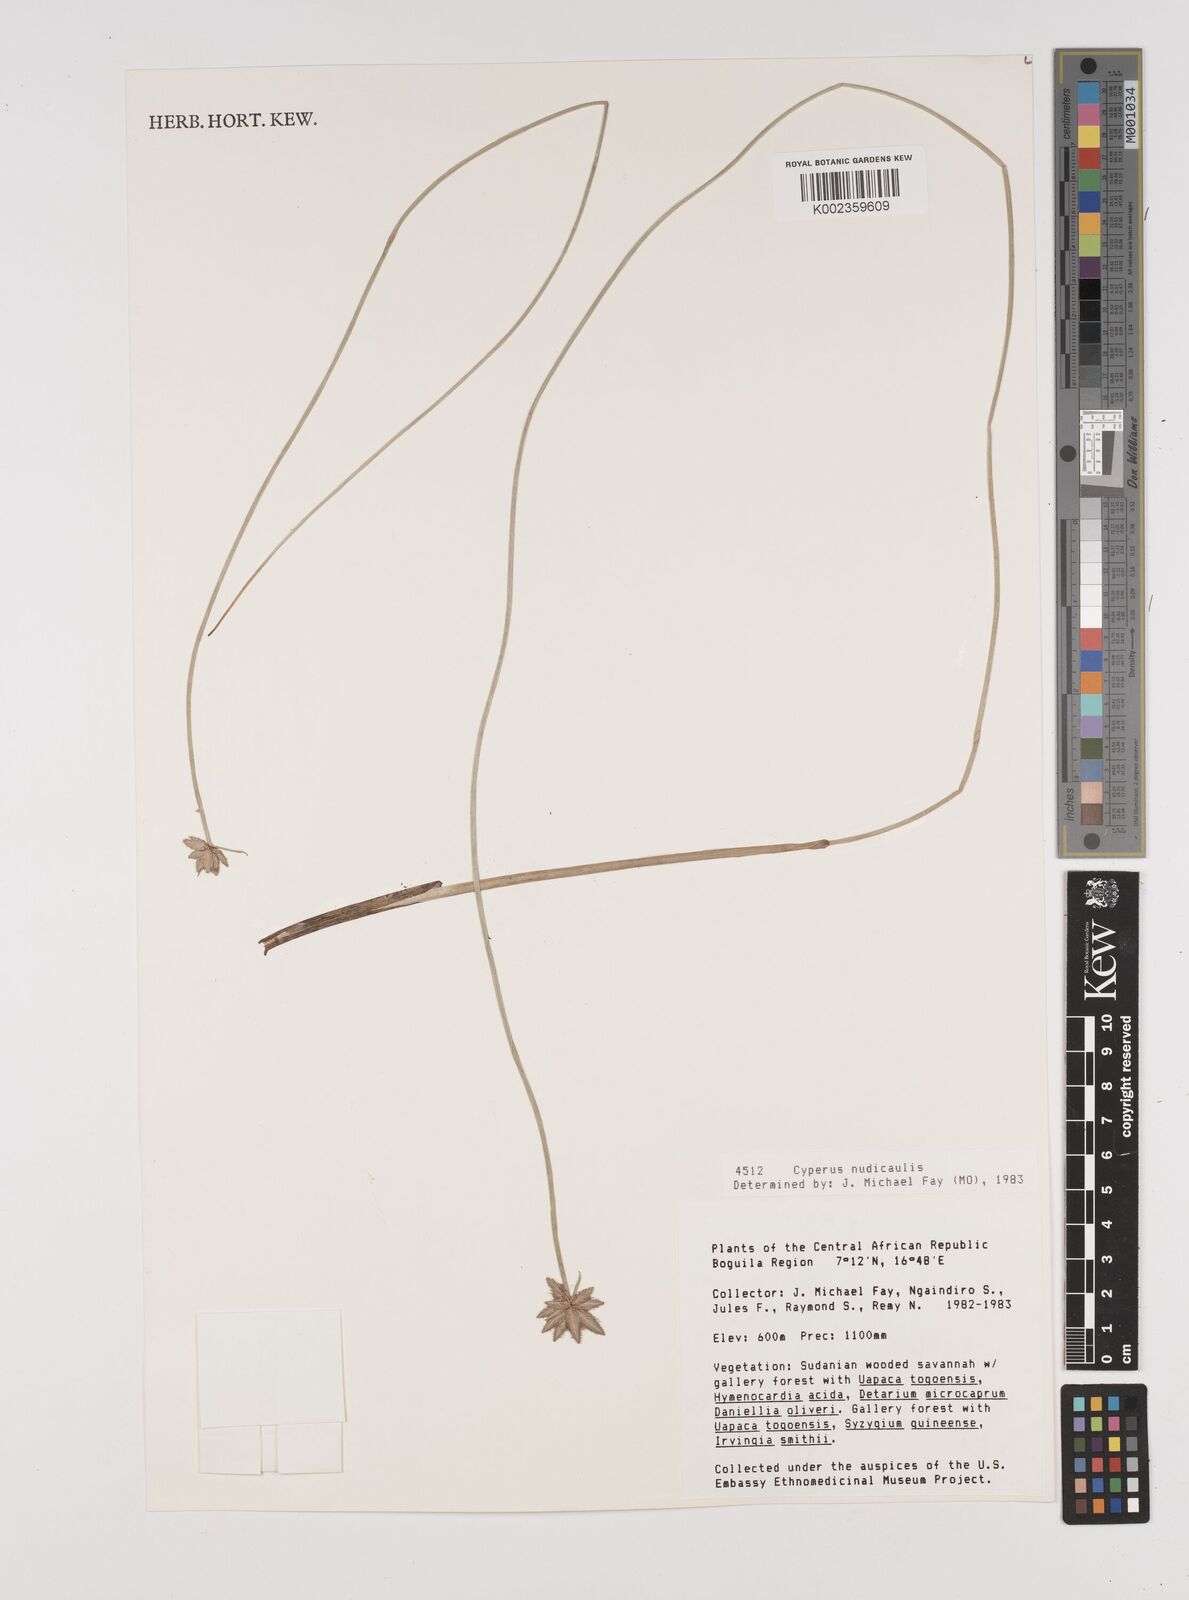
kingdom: Plantae
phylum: Tracheophyta
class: Liliopsida
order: Poales
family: Cyperaceae
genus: Cyperus
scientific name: Cyperus pectinatus
